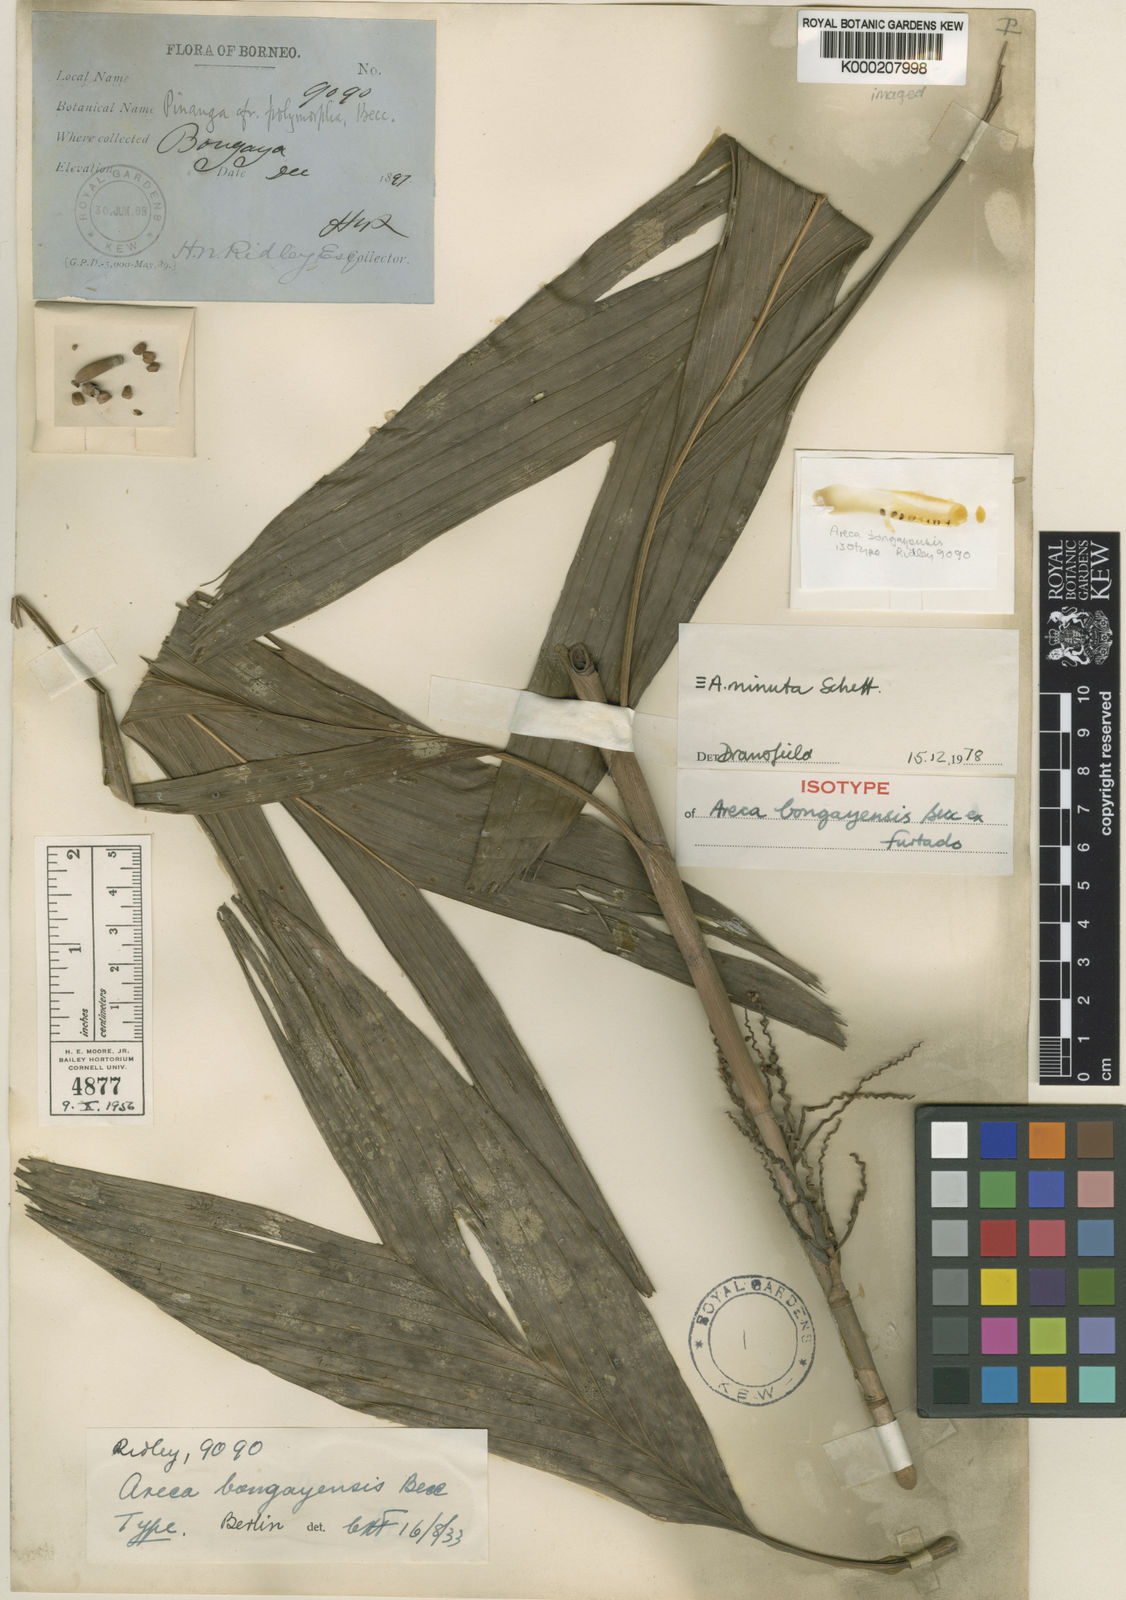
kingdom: Plantae
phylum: Tracheophyta
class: Liliopsida
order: Arecales
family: Arecaceae
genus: Areca
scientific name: Areca minuta
